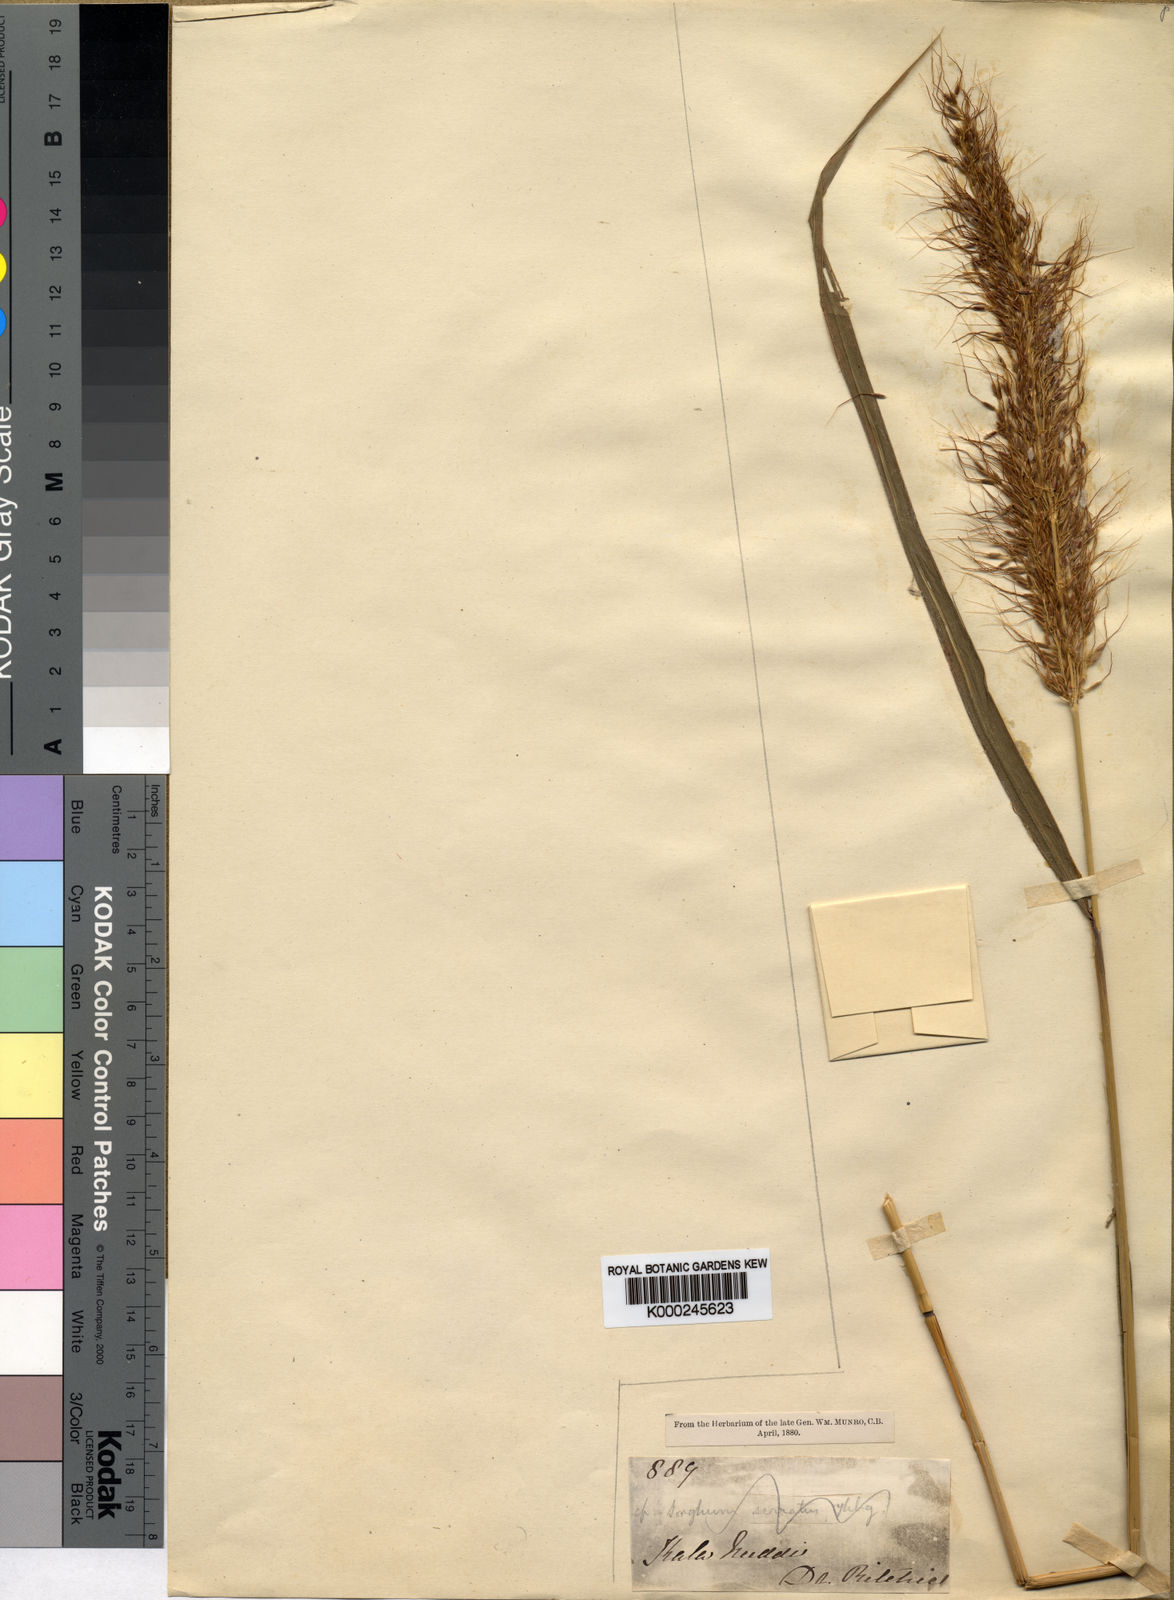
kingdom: Plantae
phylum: Tracheophyta
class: Liliopsida
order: Poales
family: Poaceae
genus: Cleistachne
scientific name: Cleistachne sorghoides
